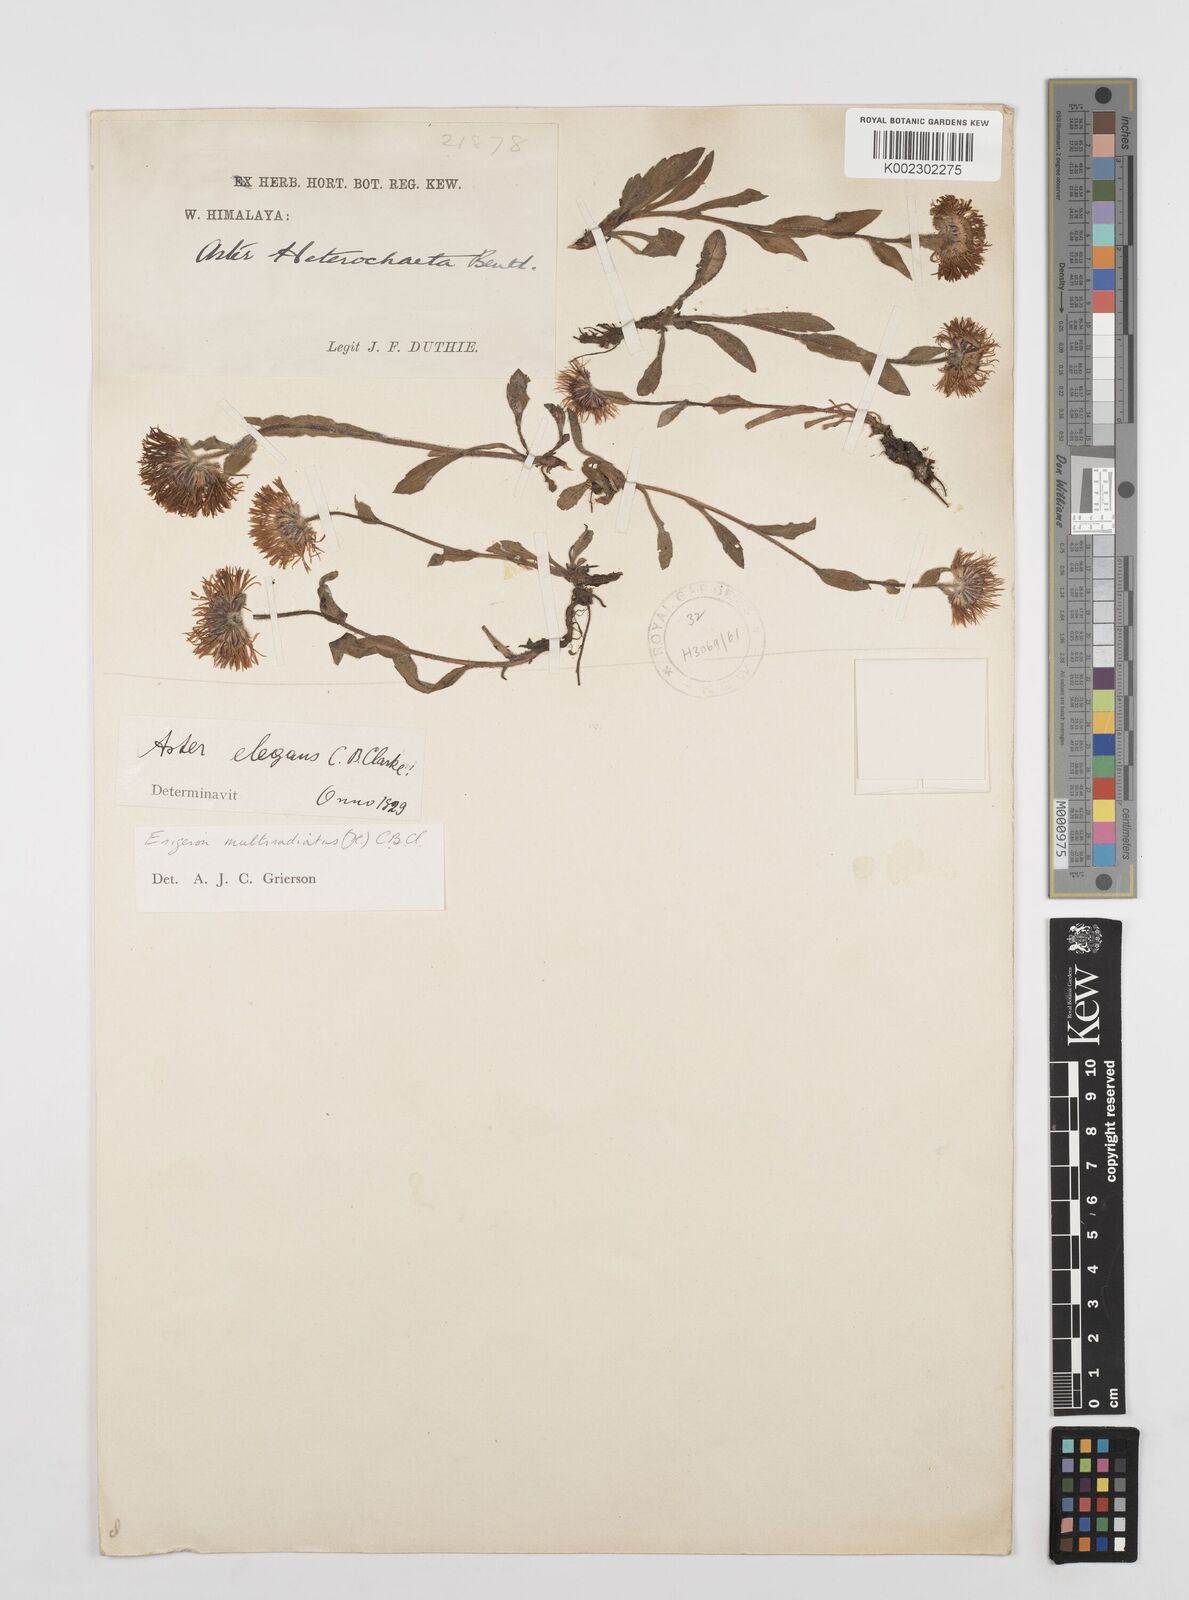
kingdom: Plantae
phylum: Tracheophyta
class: Magnoliopsida
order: Asterales
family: Asteraceae
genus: Erigeron
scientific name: Erigeron multiradiatus
